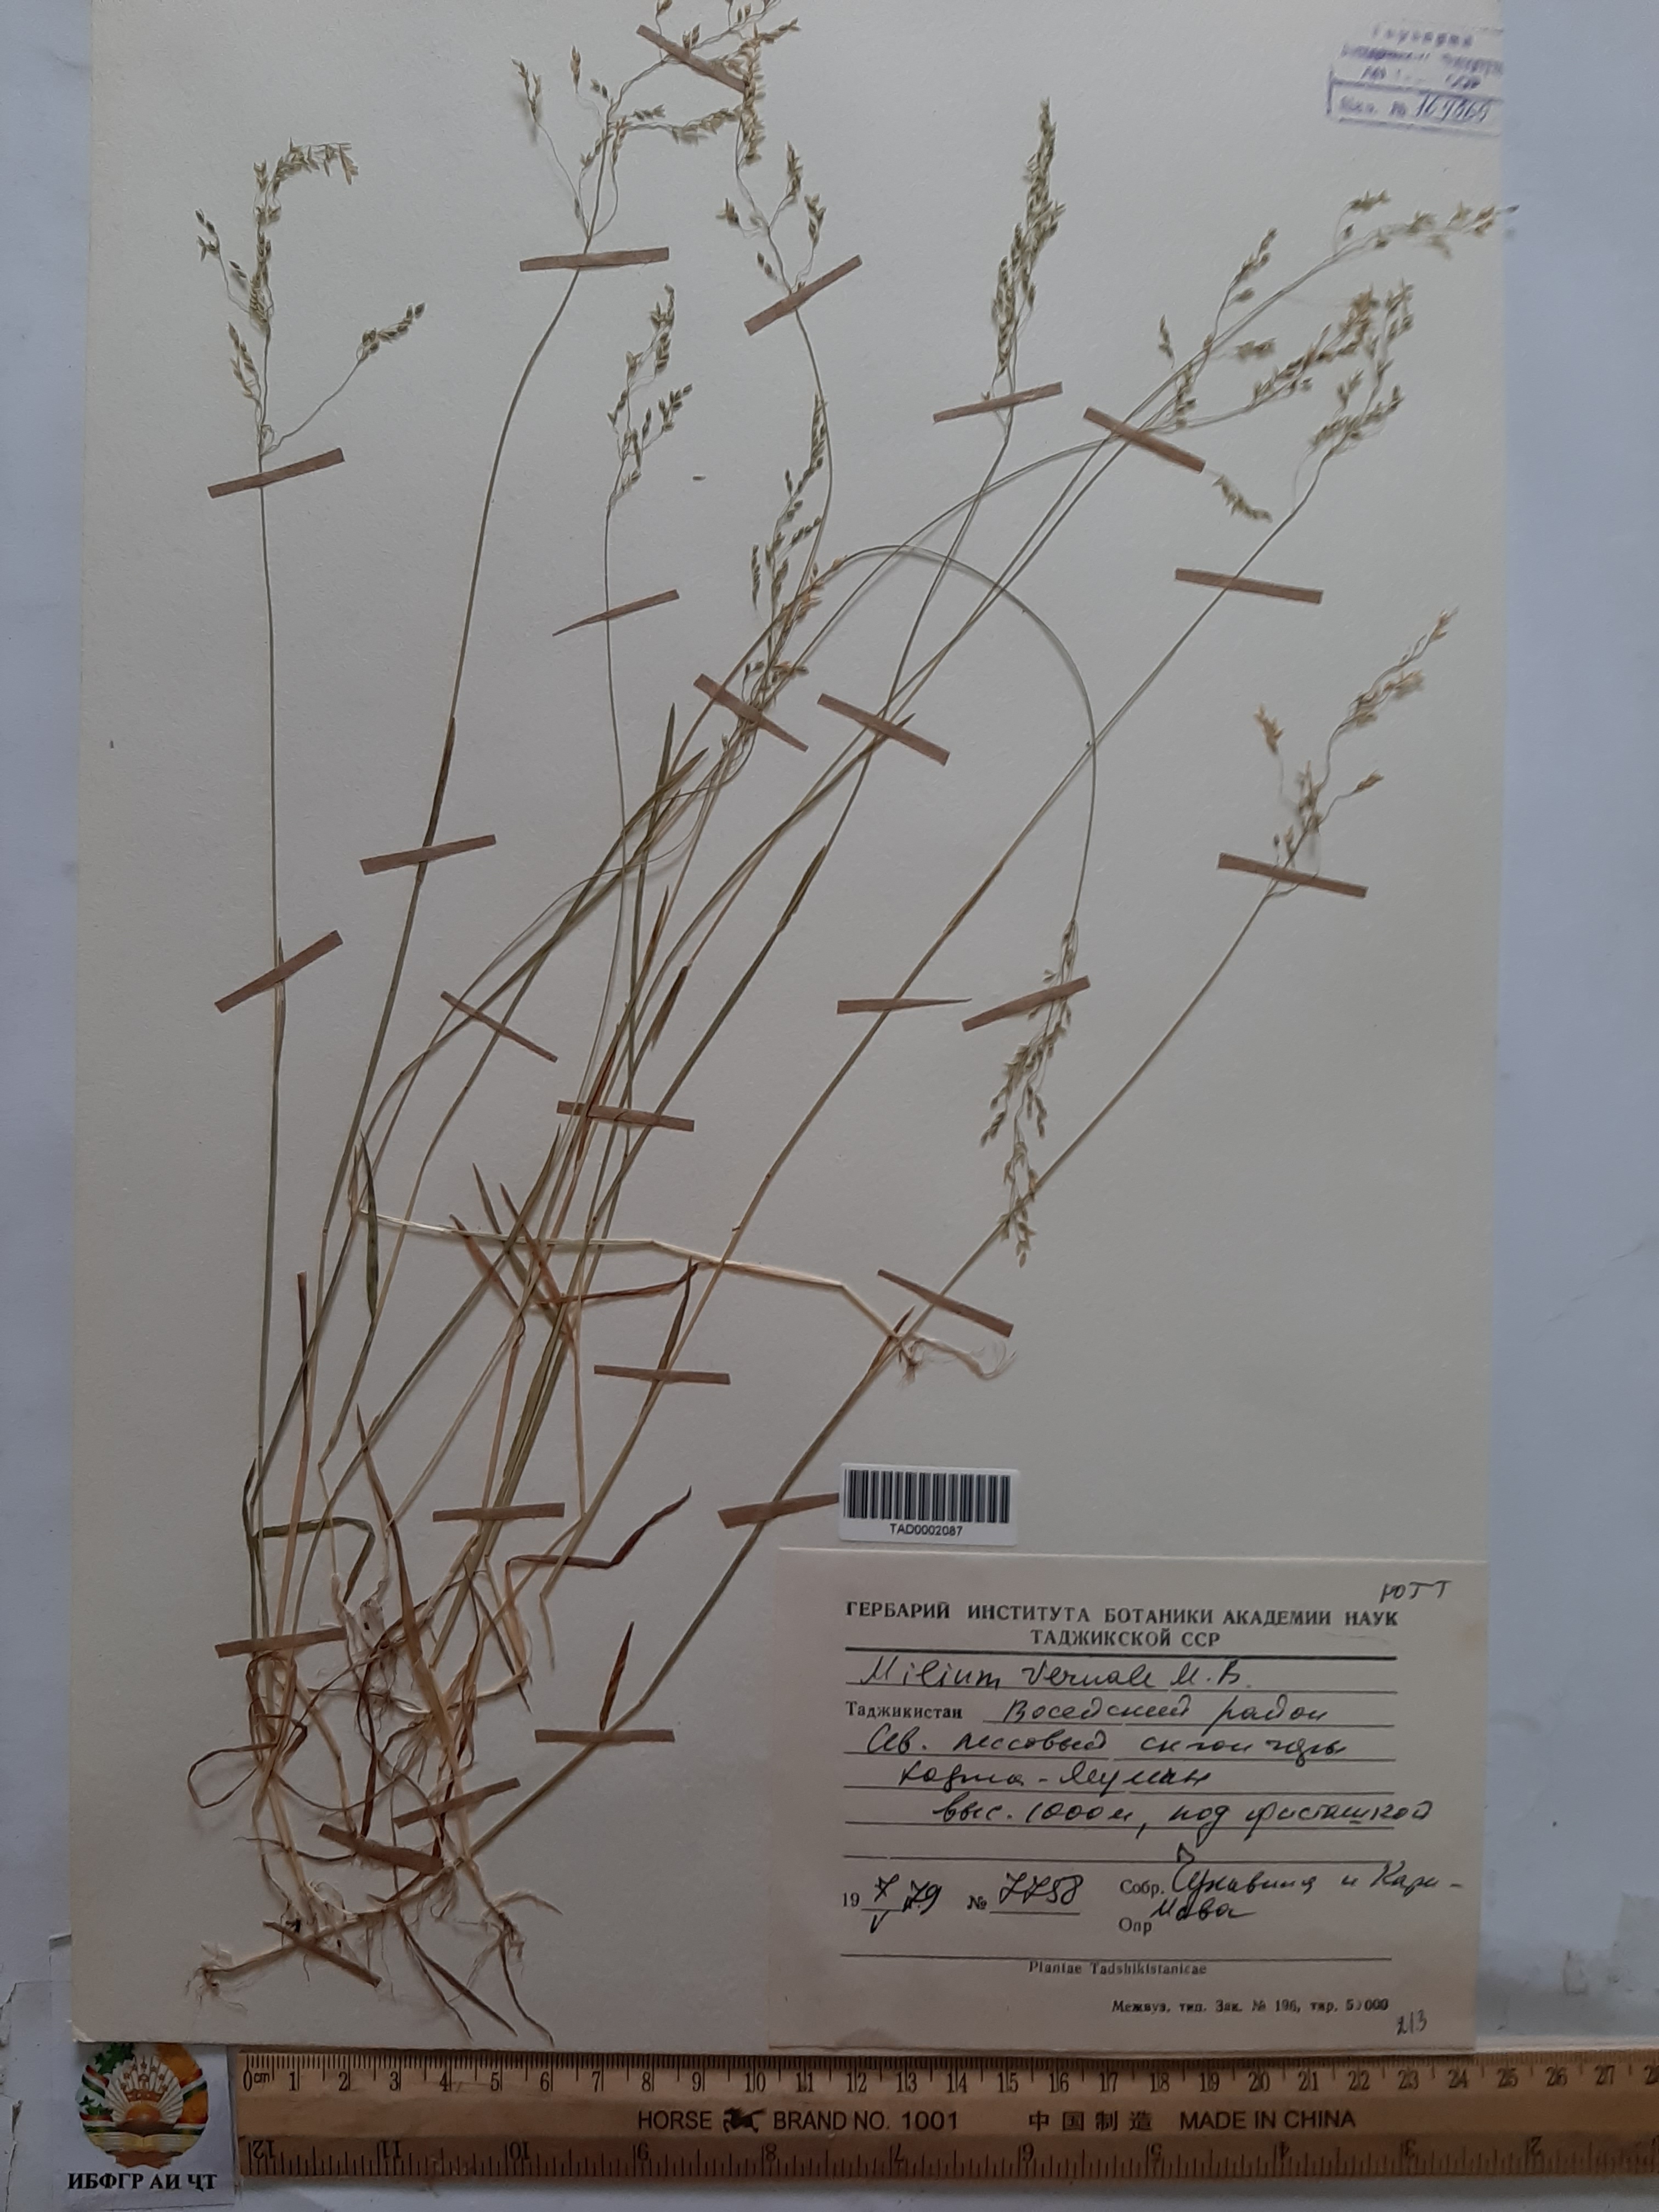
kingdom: Plantae
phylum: Tracheophyta
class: Liliopsida
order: Poales
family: Poaceae
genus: Milium
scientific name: Milium vernale
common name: Early millet
